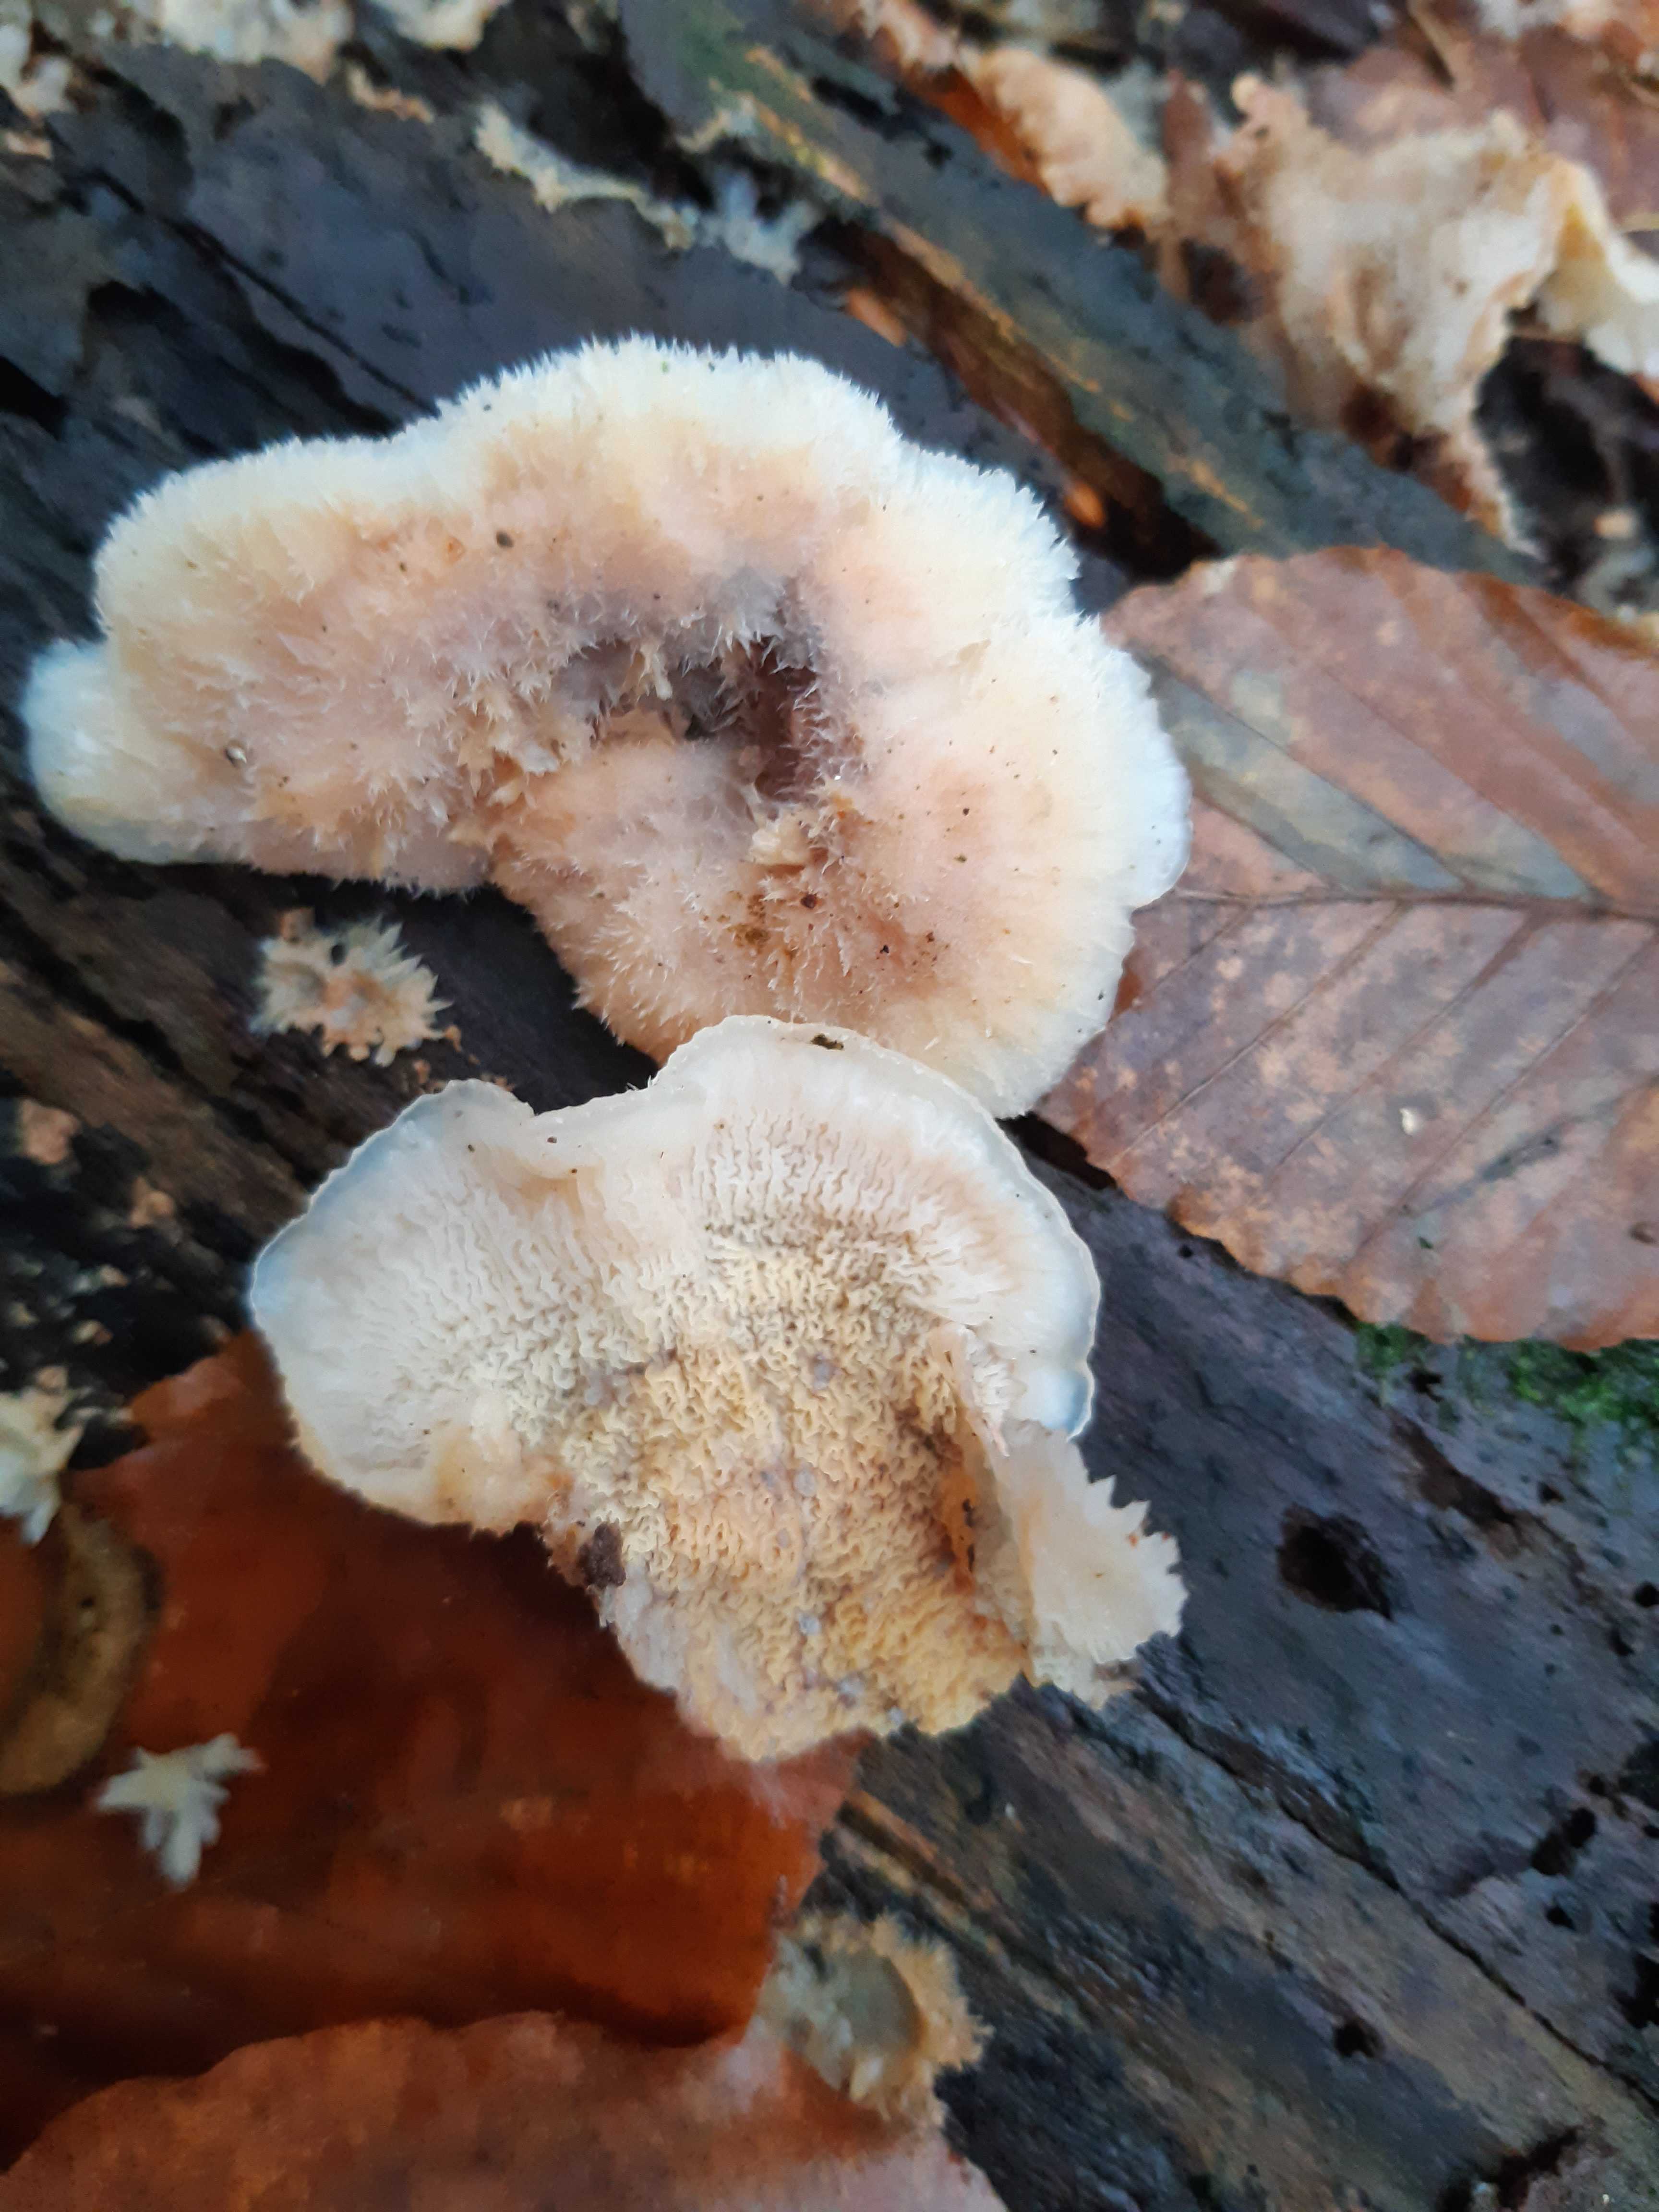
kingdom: Fungi
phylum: Basidiomycota
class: Agaricomycetes
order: Polyporales
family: Meruliaceae
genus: Phlebia
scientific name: Phlebia tremellosa
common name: bævrende åresvamp
